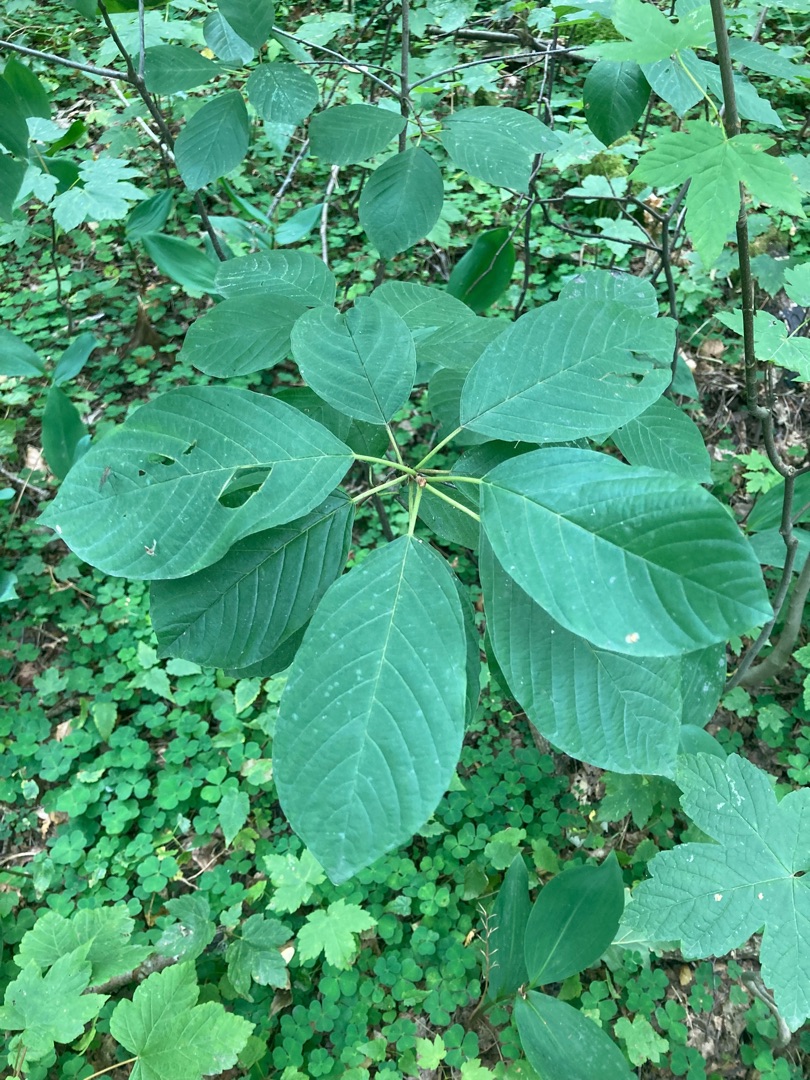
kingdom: Plantae
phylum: Tracheophyta
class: Magnoliopsida
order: Rosales
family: Rhamnaceae
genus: Frangula
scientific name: Frangula alnus
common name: Tørst
